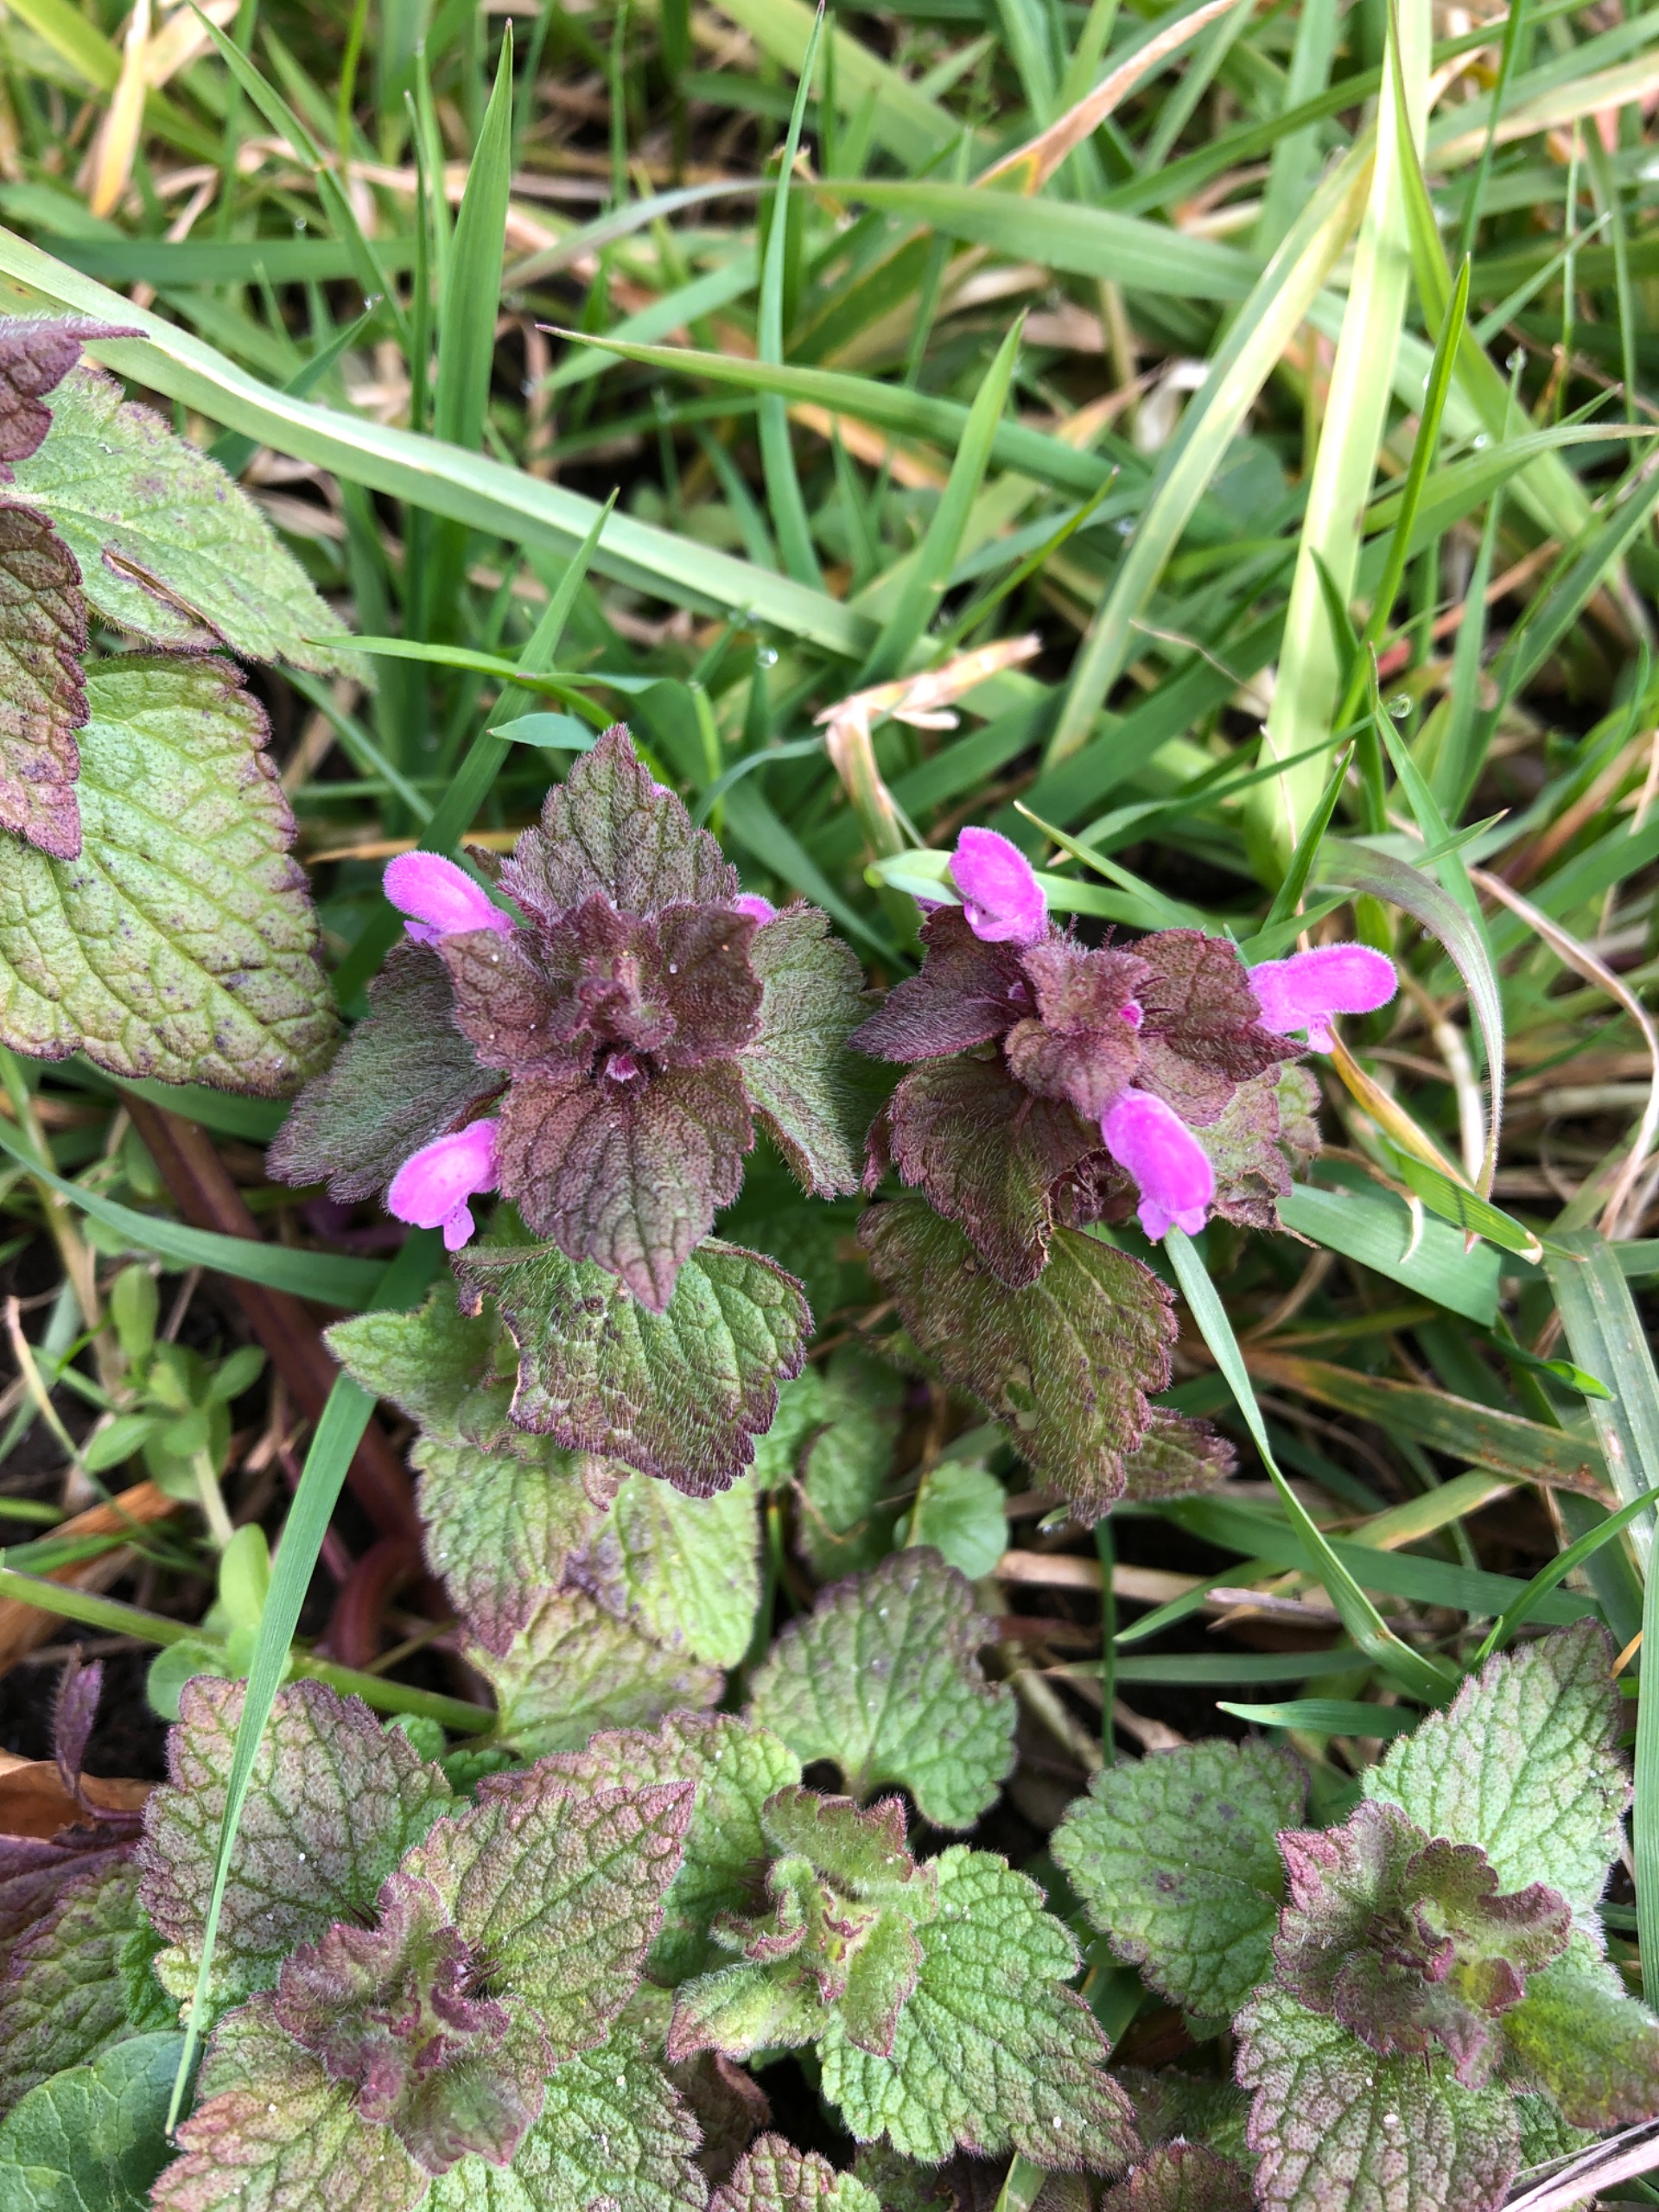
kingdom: Plantae
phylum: Tracheophyta
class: Magnoliopsida
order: Lamiales
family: Lamiaceae
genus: Lamium
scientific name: Lamium purpureum
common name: Rød tvetand
